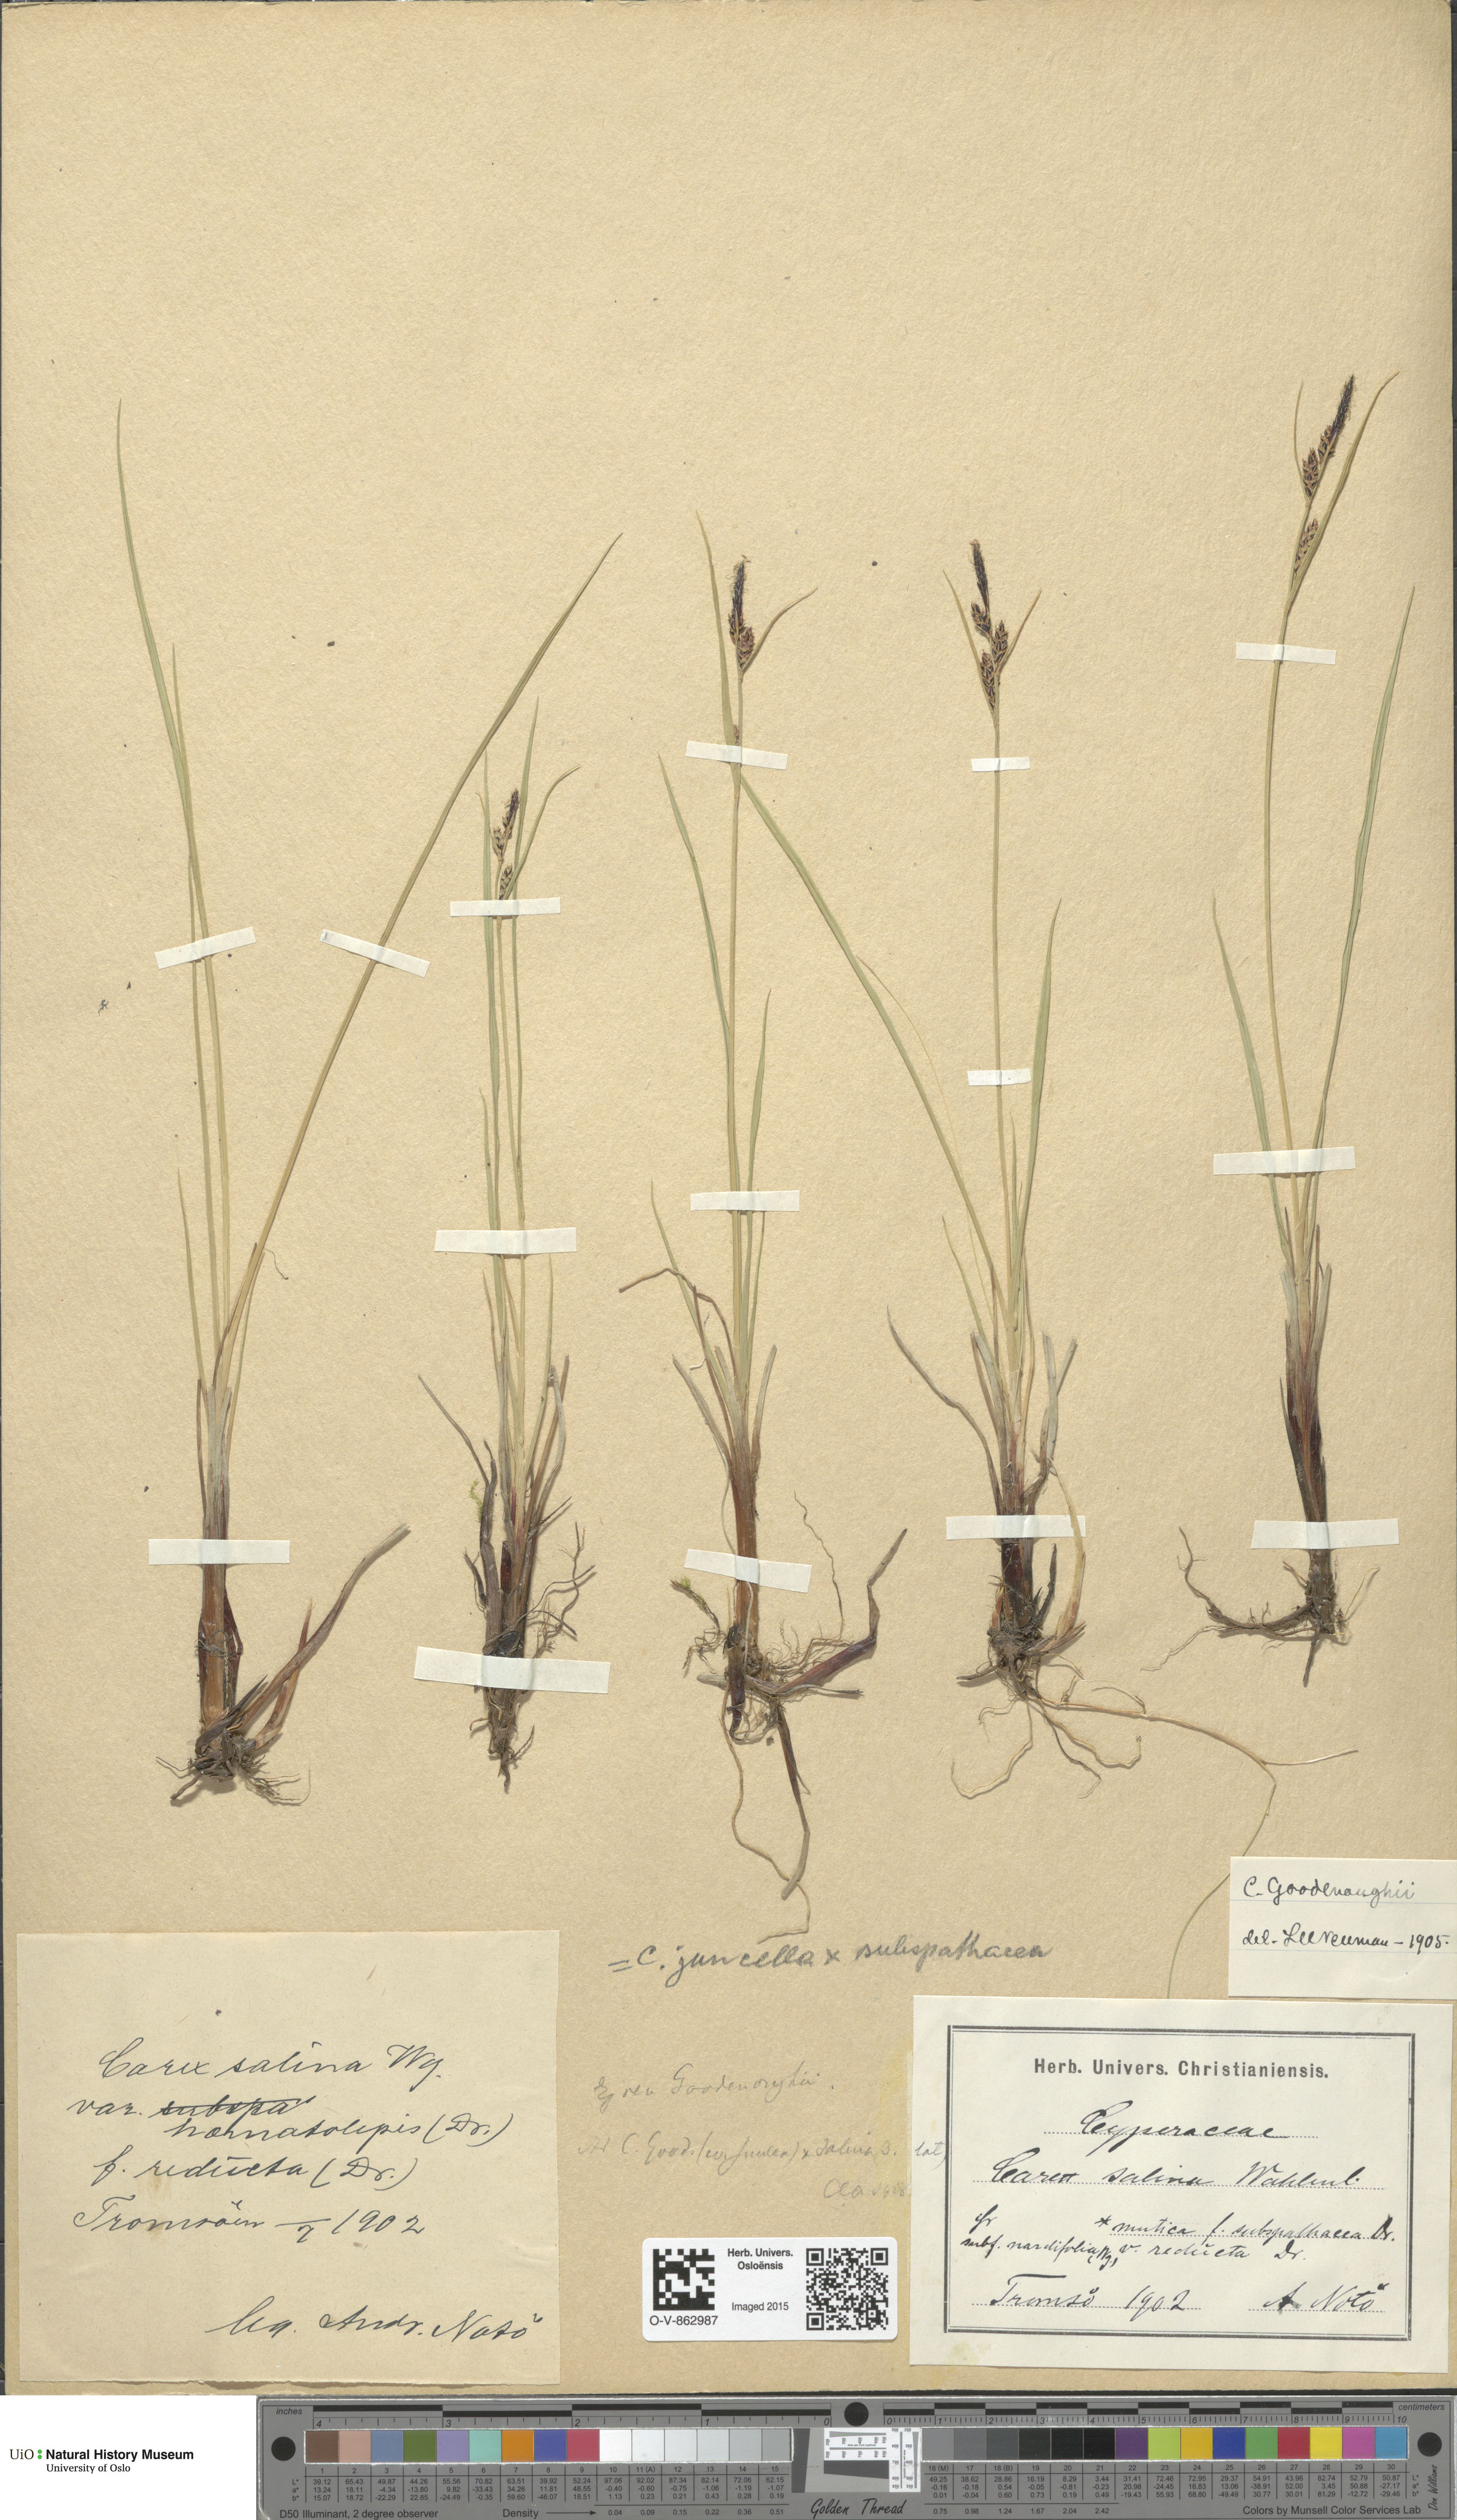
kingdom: Plantae
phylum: Tracheophyta
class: Liliopsida
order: Poales
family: Cyperaceae
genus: Carex
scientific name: Carex
